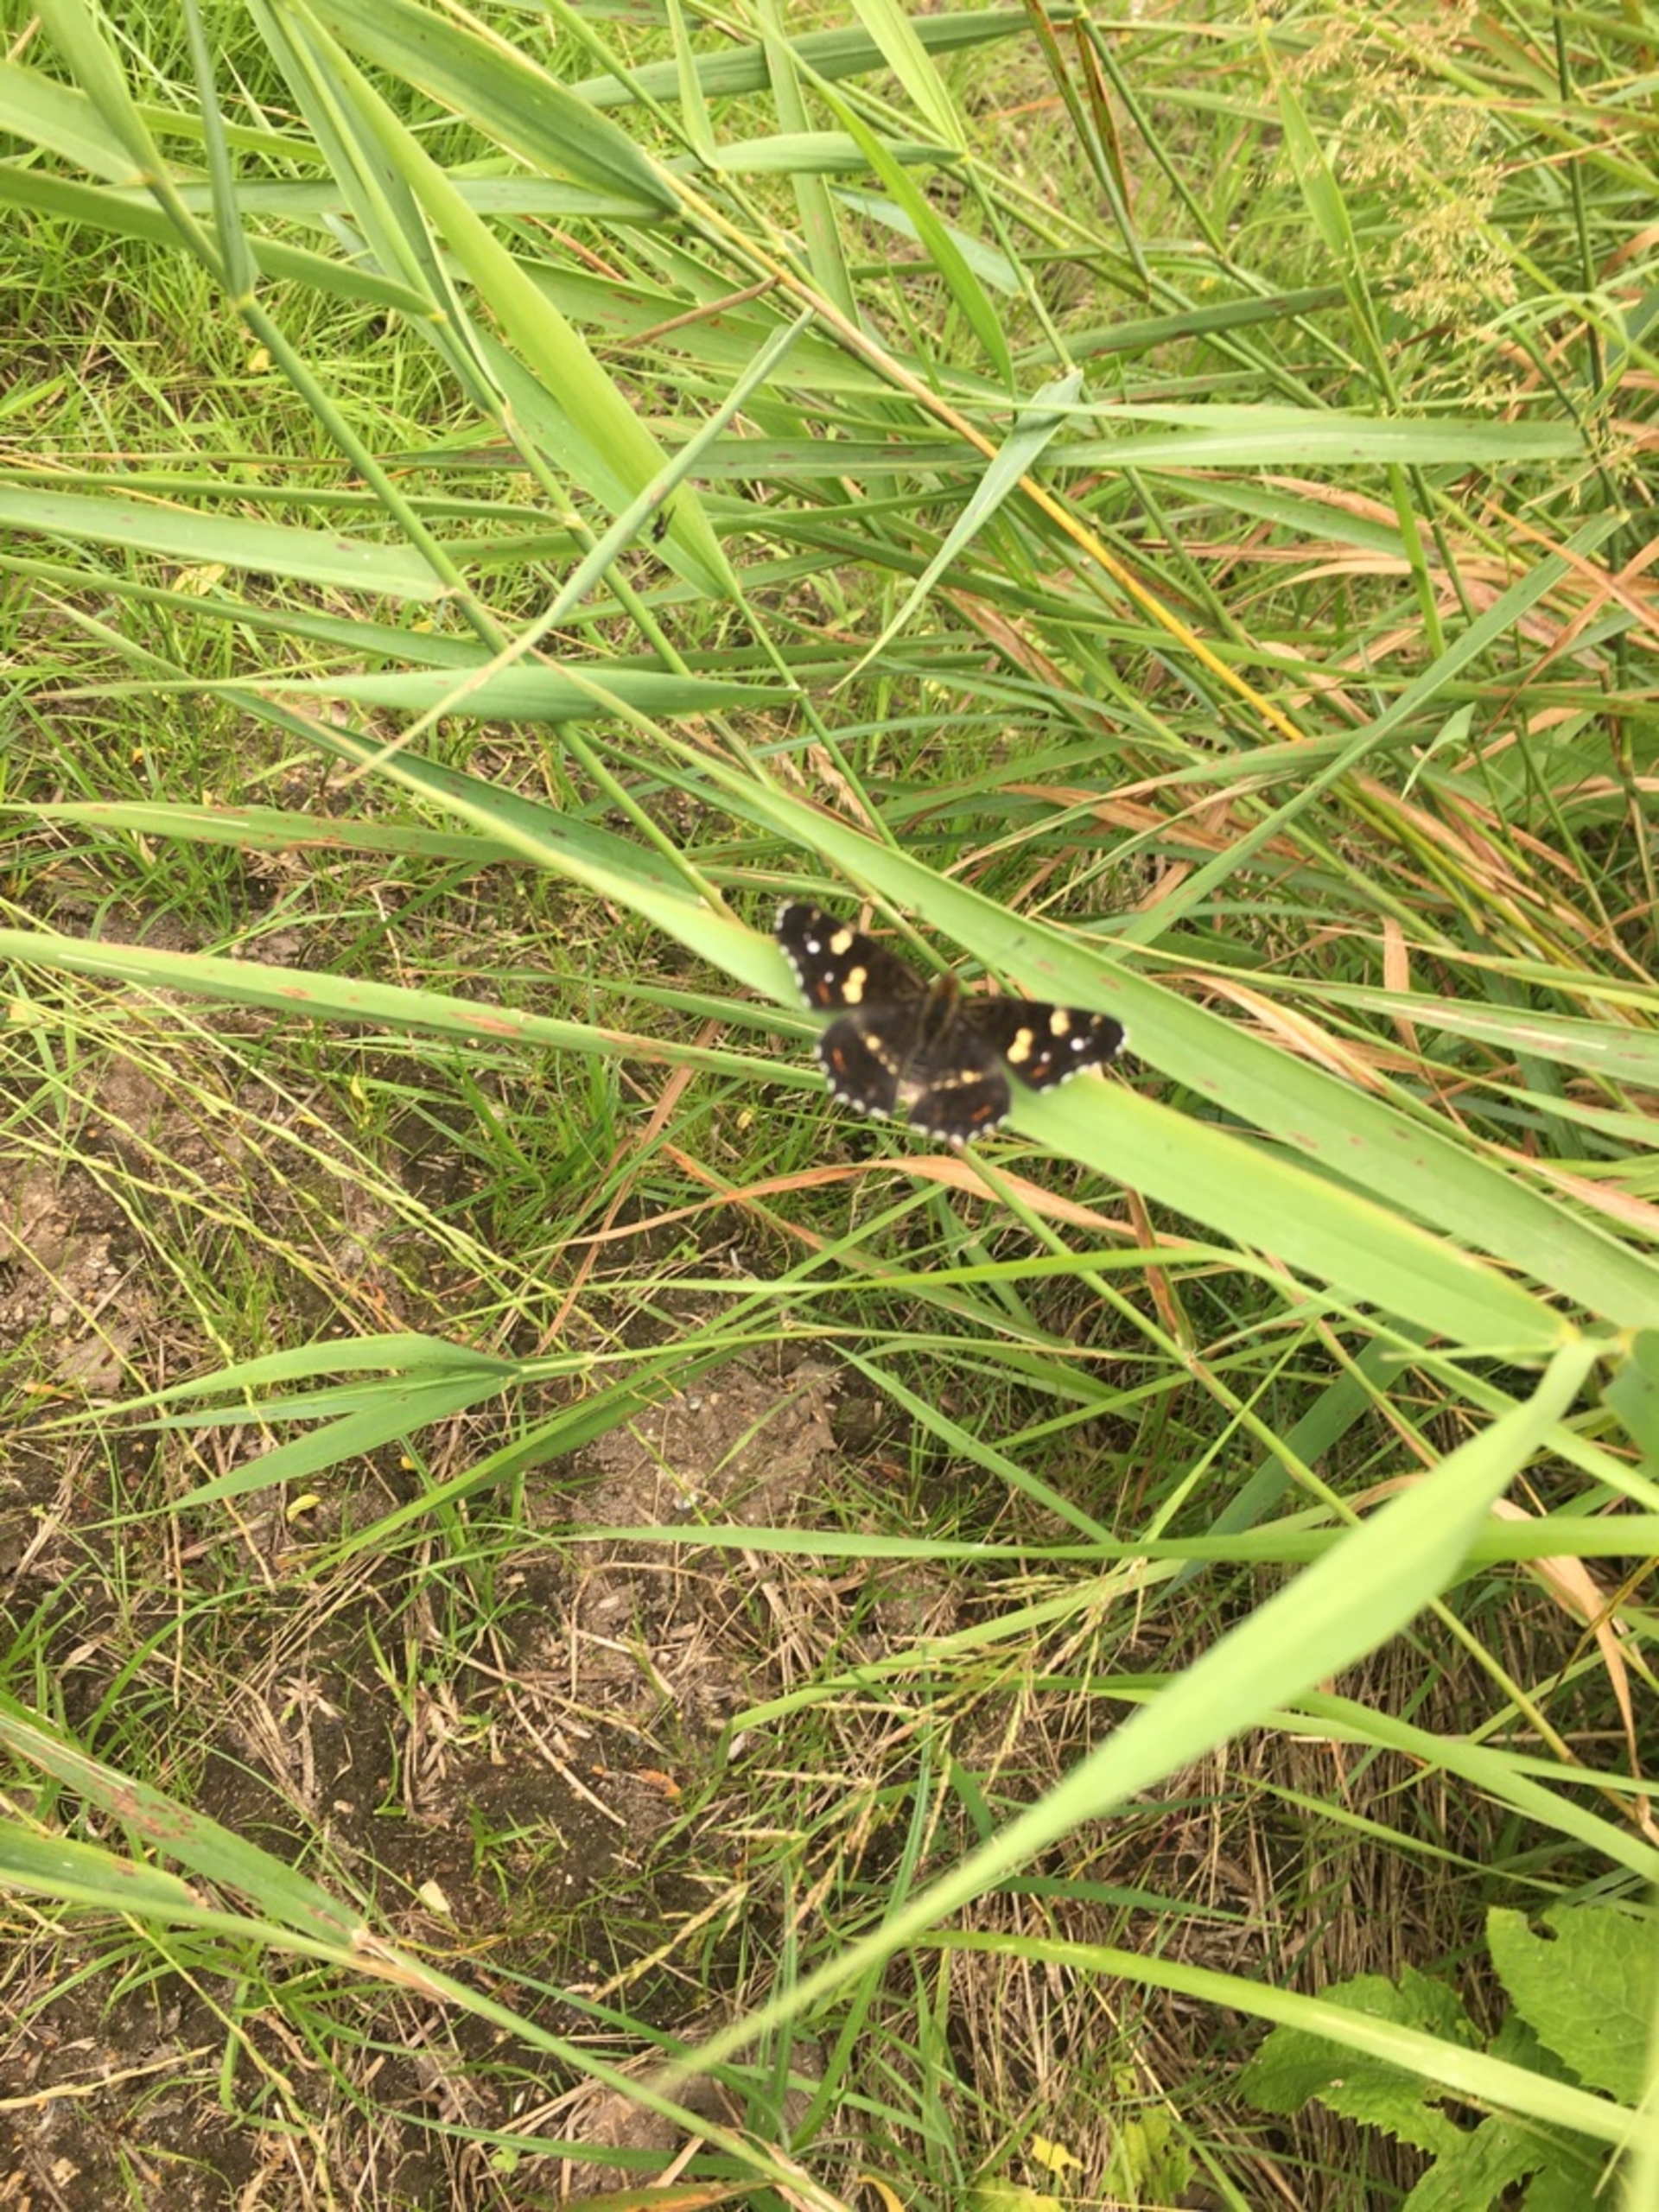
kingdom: Animalia
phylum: Arthropoda
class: Insecta
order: Lepidoptera
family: Nymphalidae
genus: Araschnia
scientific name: Araschnia levana
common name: Nældesommerfugl
